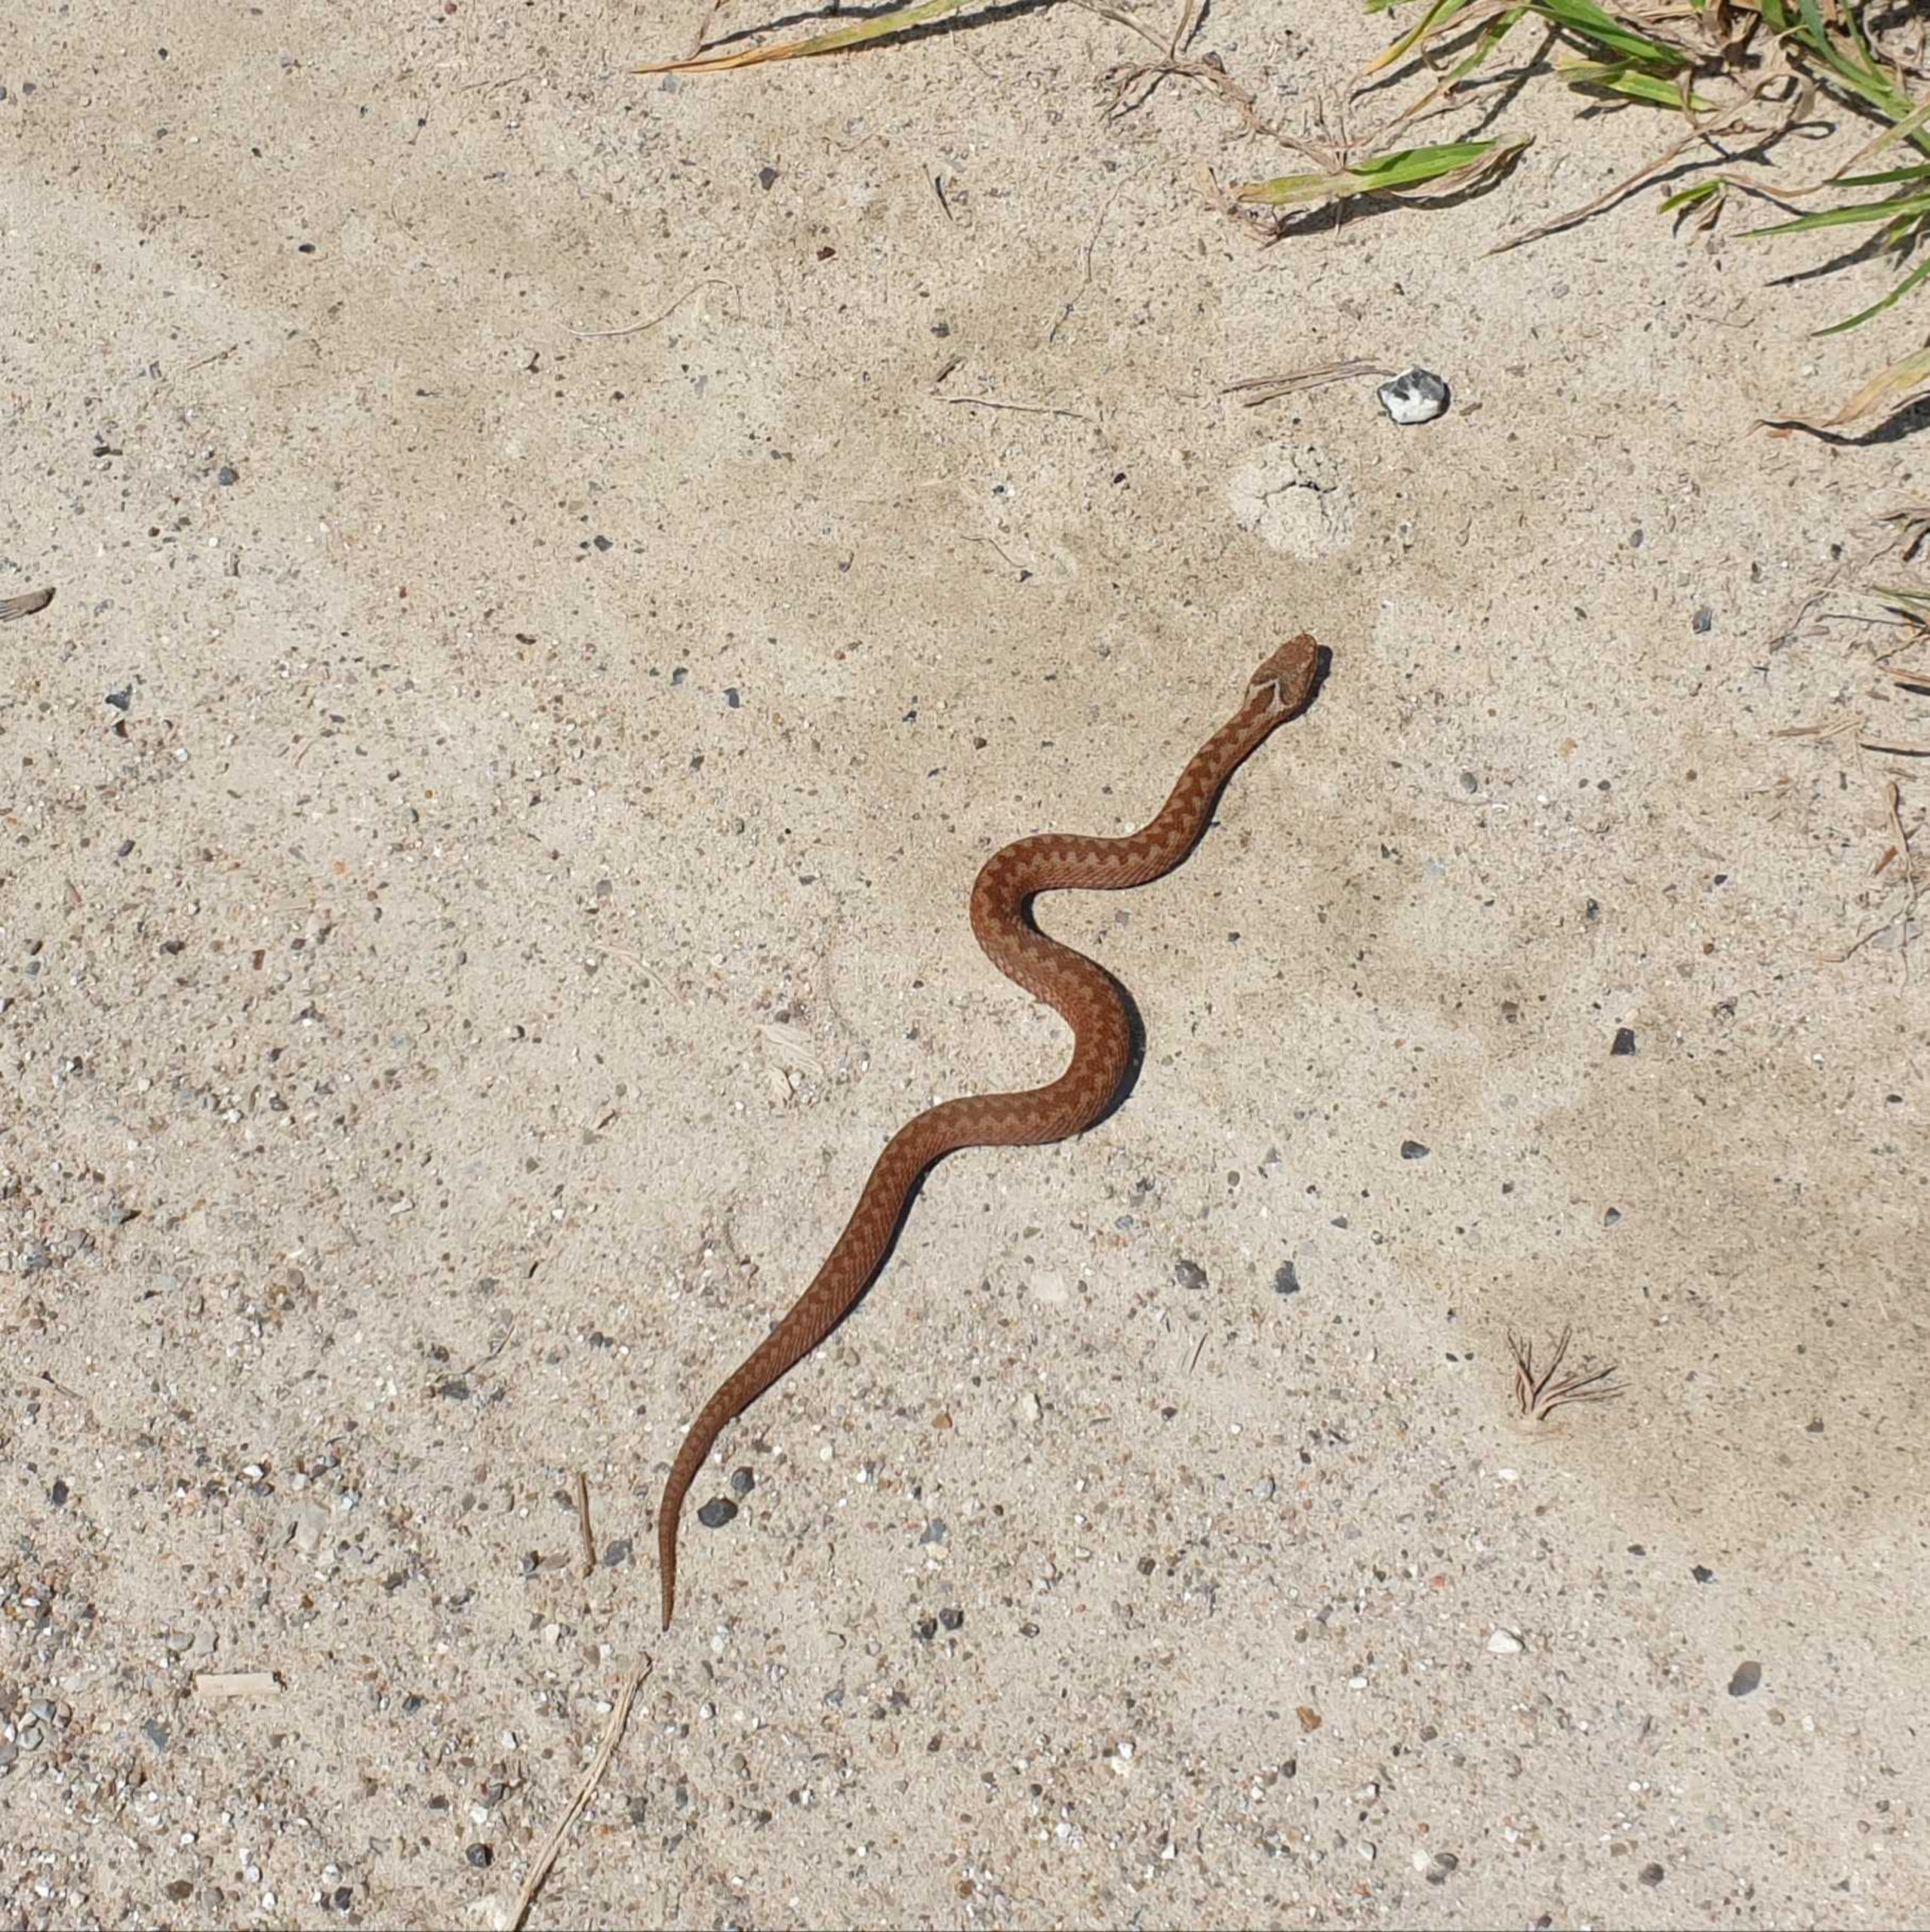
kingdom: Animalia
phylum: Chordata
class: Squamata
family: Viperidae
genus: Vipera
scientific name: Vipera berus
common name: Hugorm
